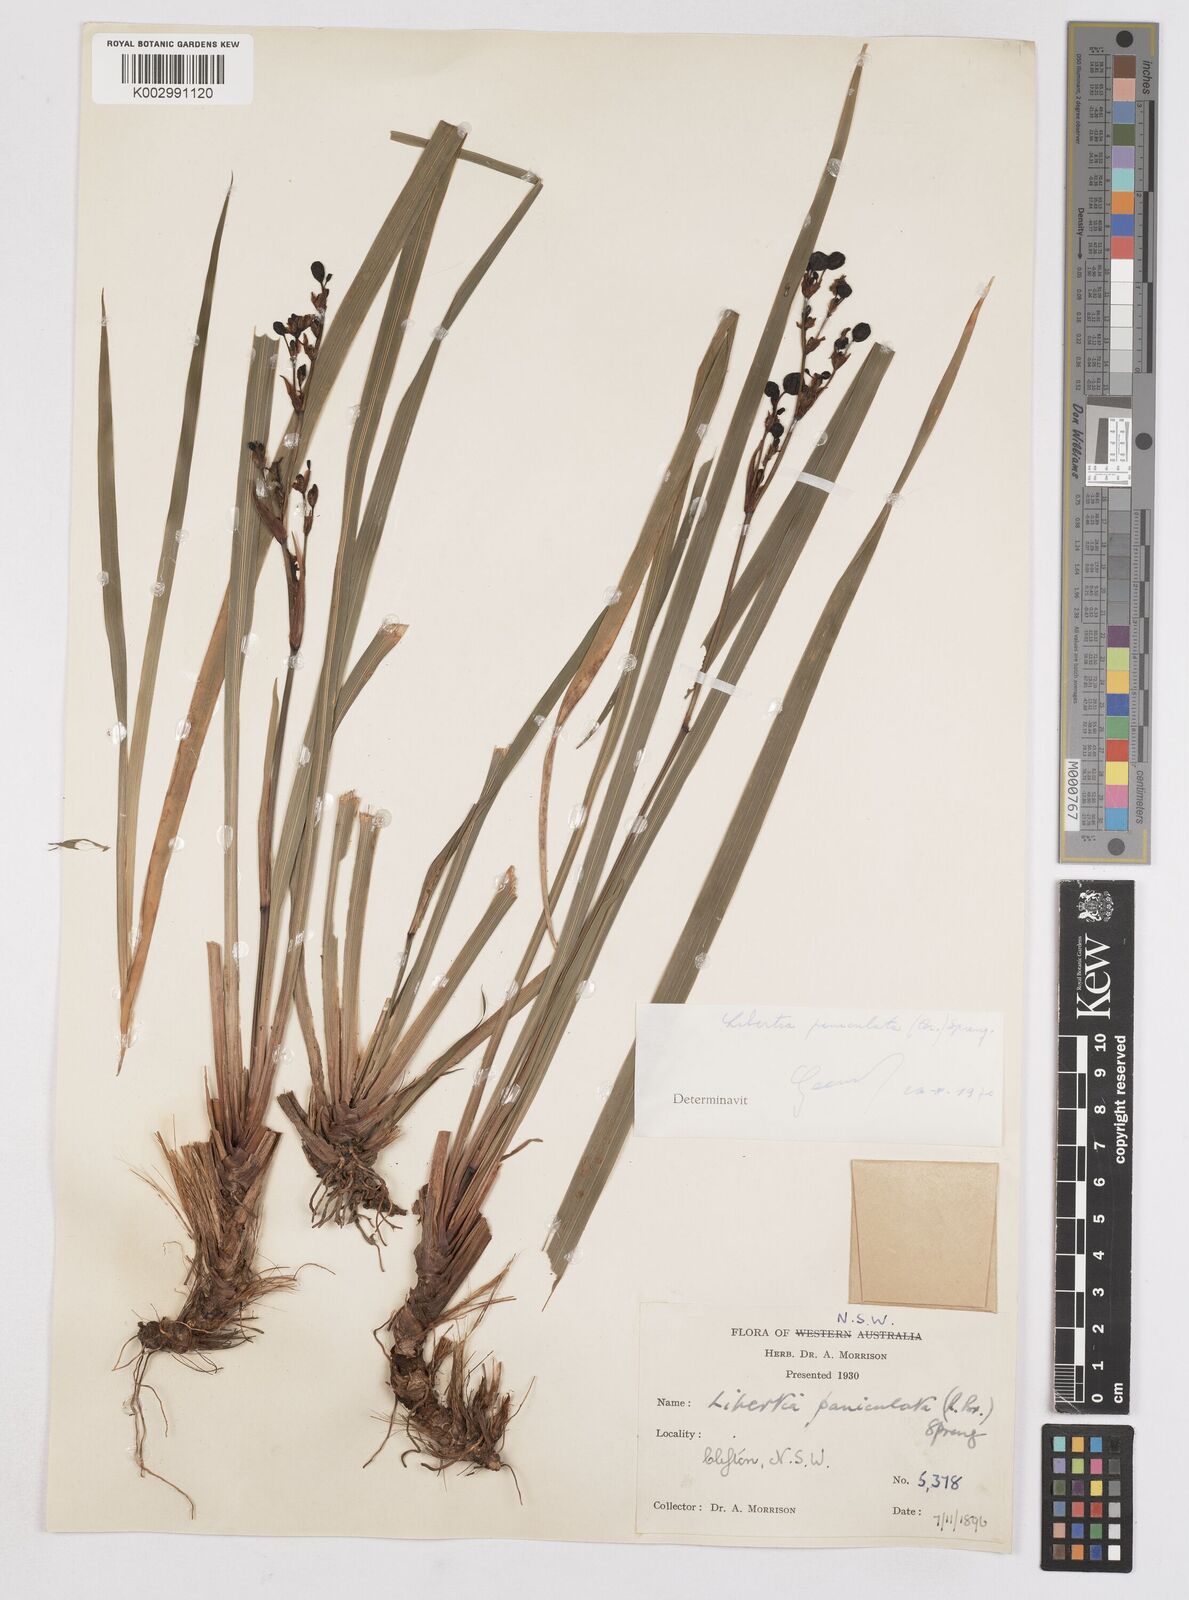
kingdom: Plantae
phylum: Tracheophyta
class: Liliopsida
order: Asparagales
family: Iridaceae
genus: Libertia
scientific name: Libertia paniculata
